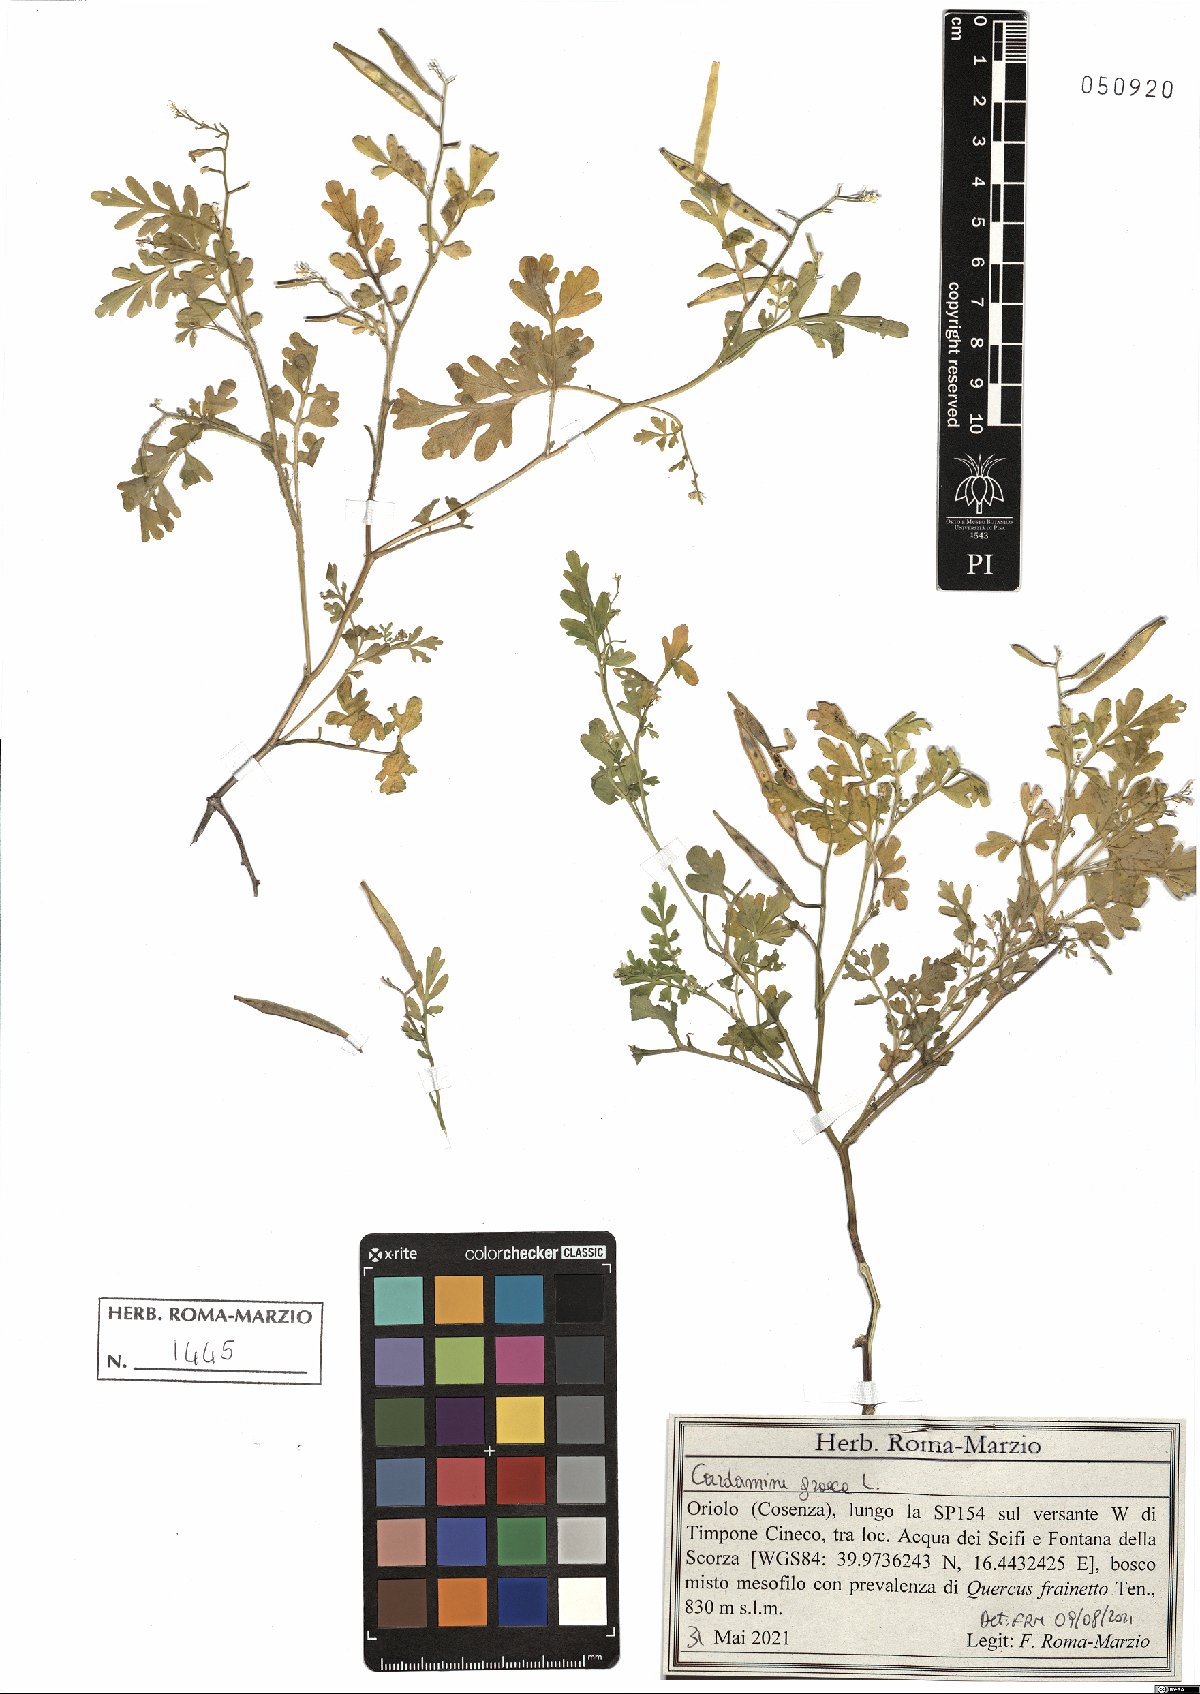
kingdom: Plantae
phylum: Tracheophyta
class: Magnoliopsida
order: Brassicales
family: Brassicaceae
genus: Cardamine
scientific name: Cardamine graeca
